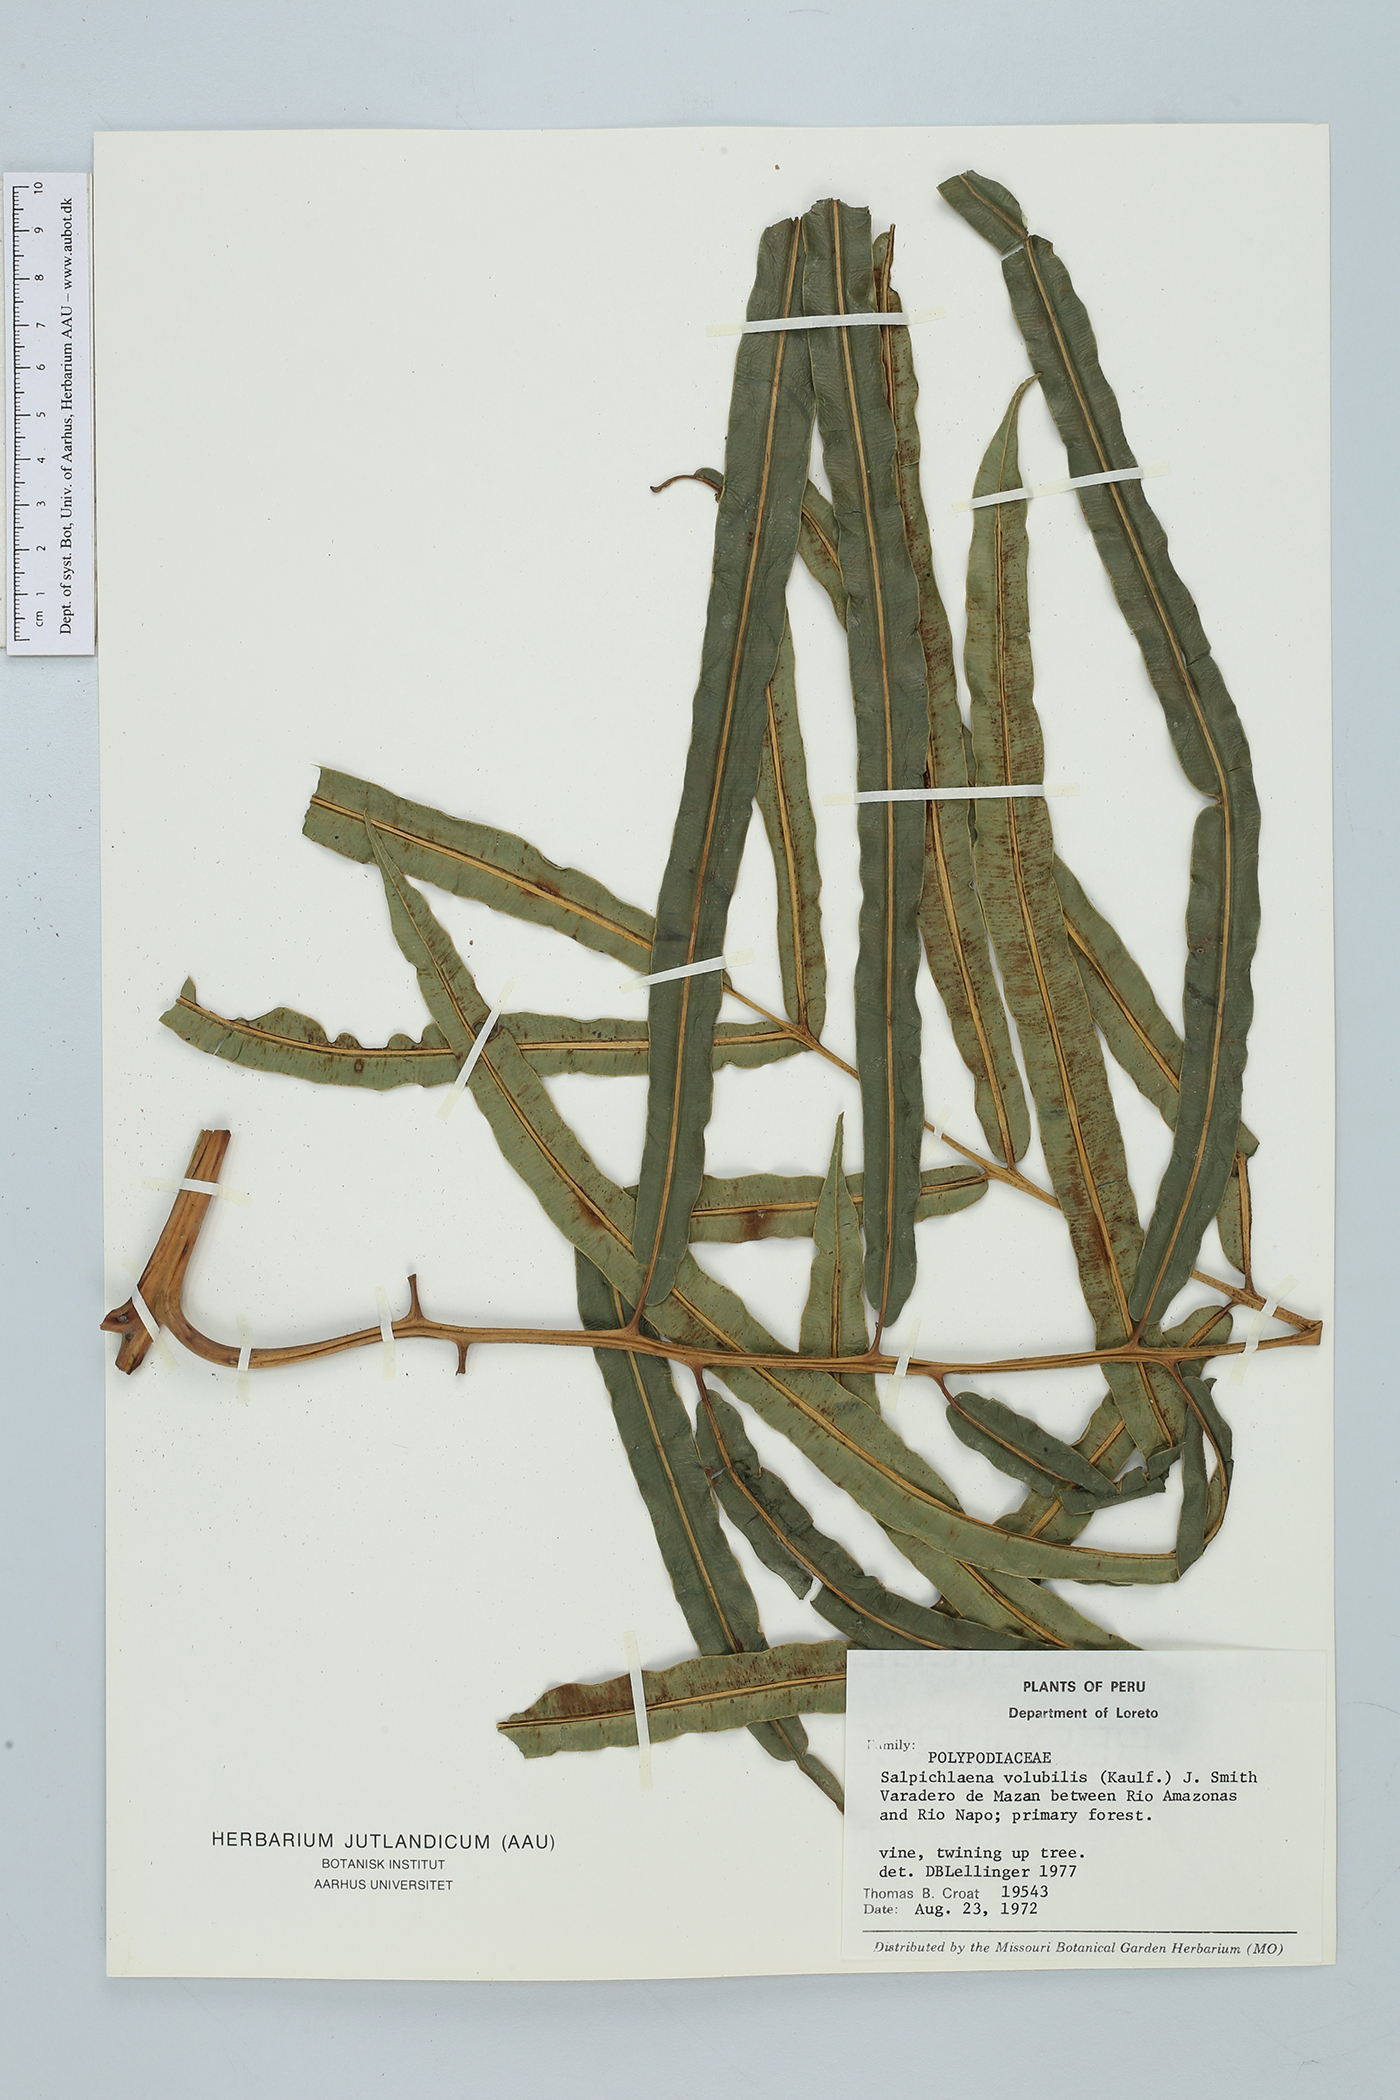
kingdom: Plantae
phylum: Tracheophyta
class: Polypodiopsida
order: Polypodiales
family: Blechnaceae
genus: Salpichlaena
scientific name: Salpichlaena volubilis
